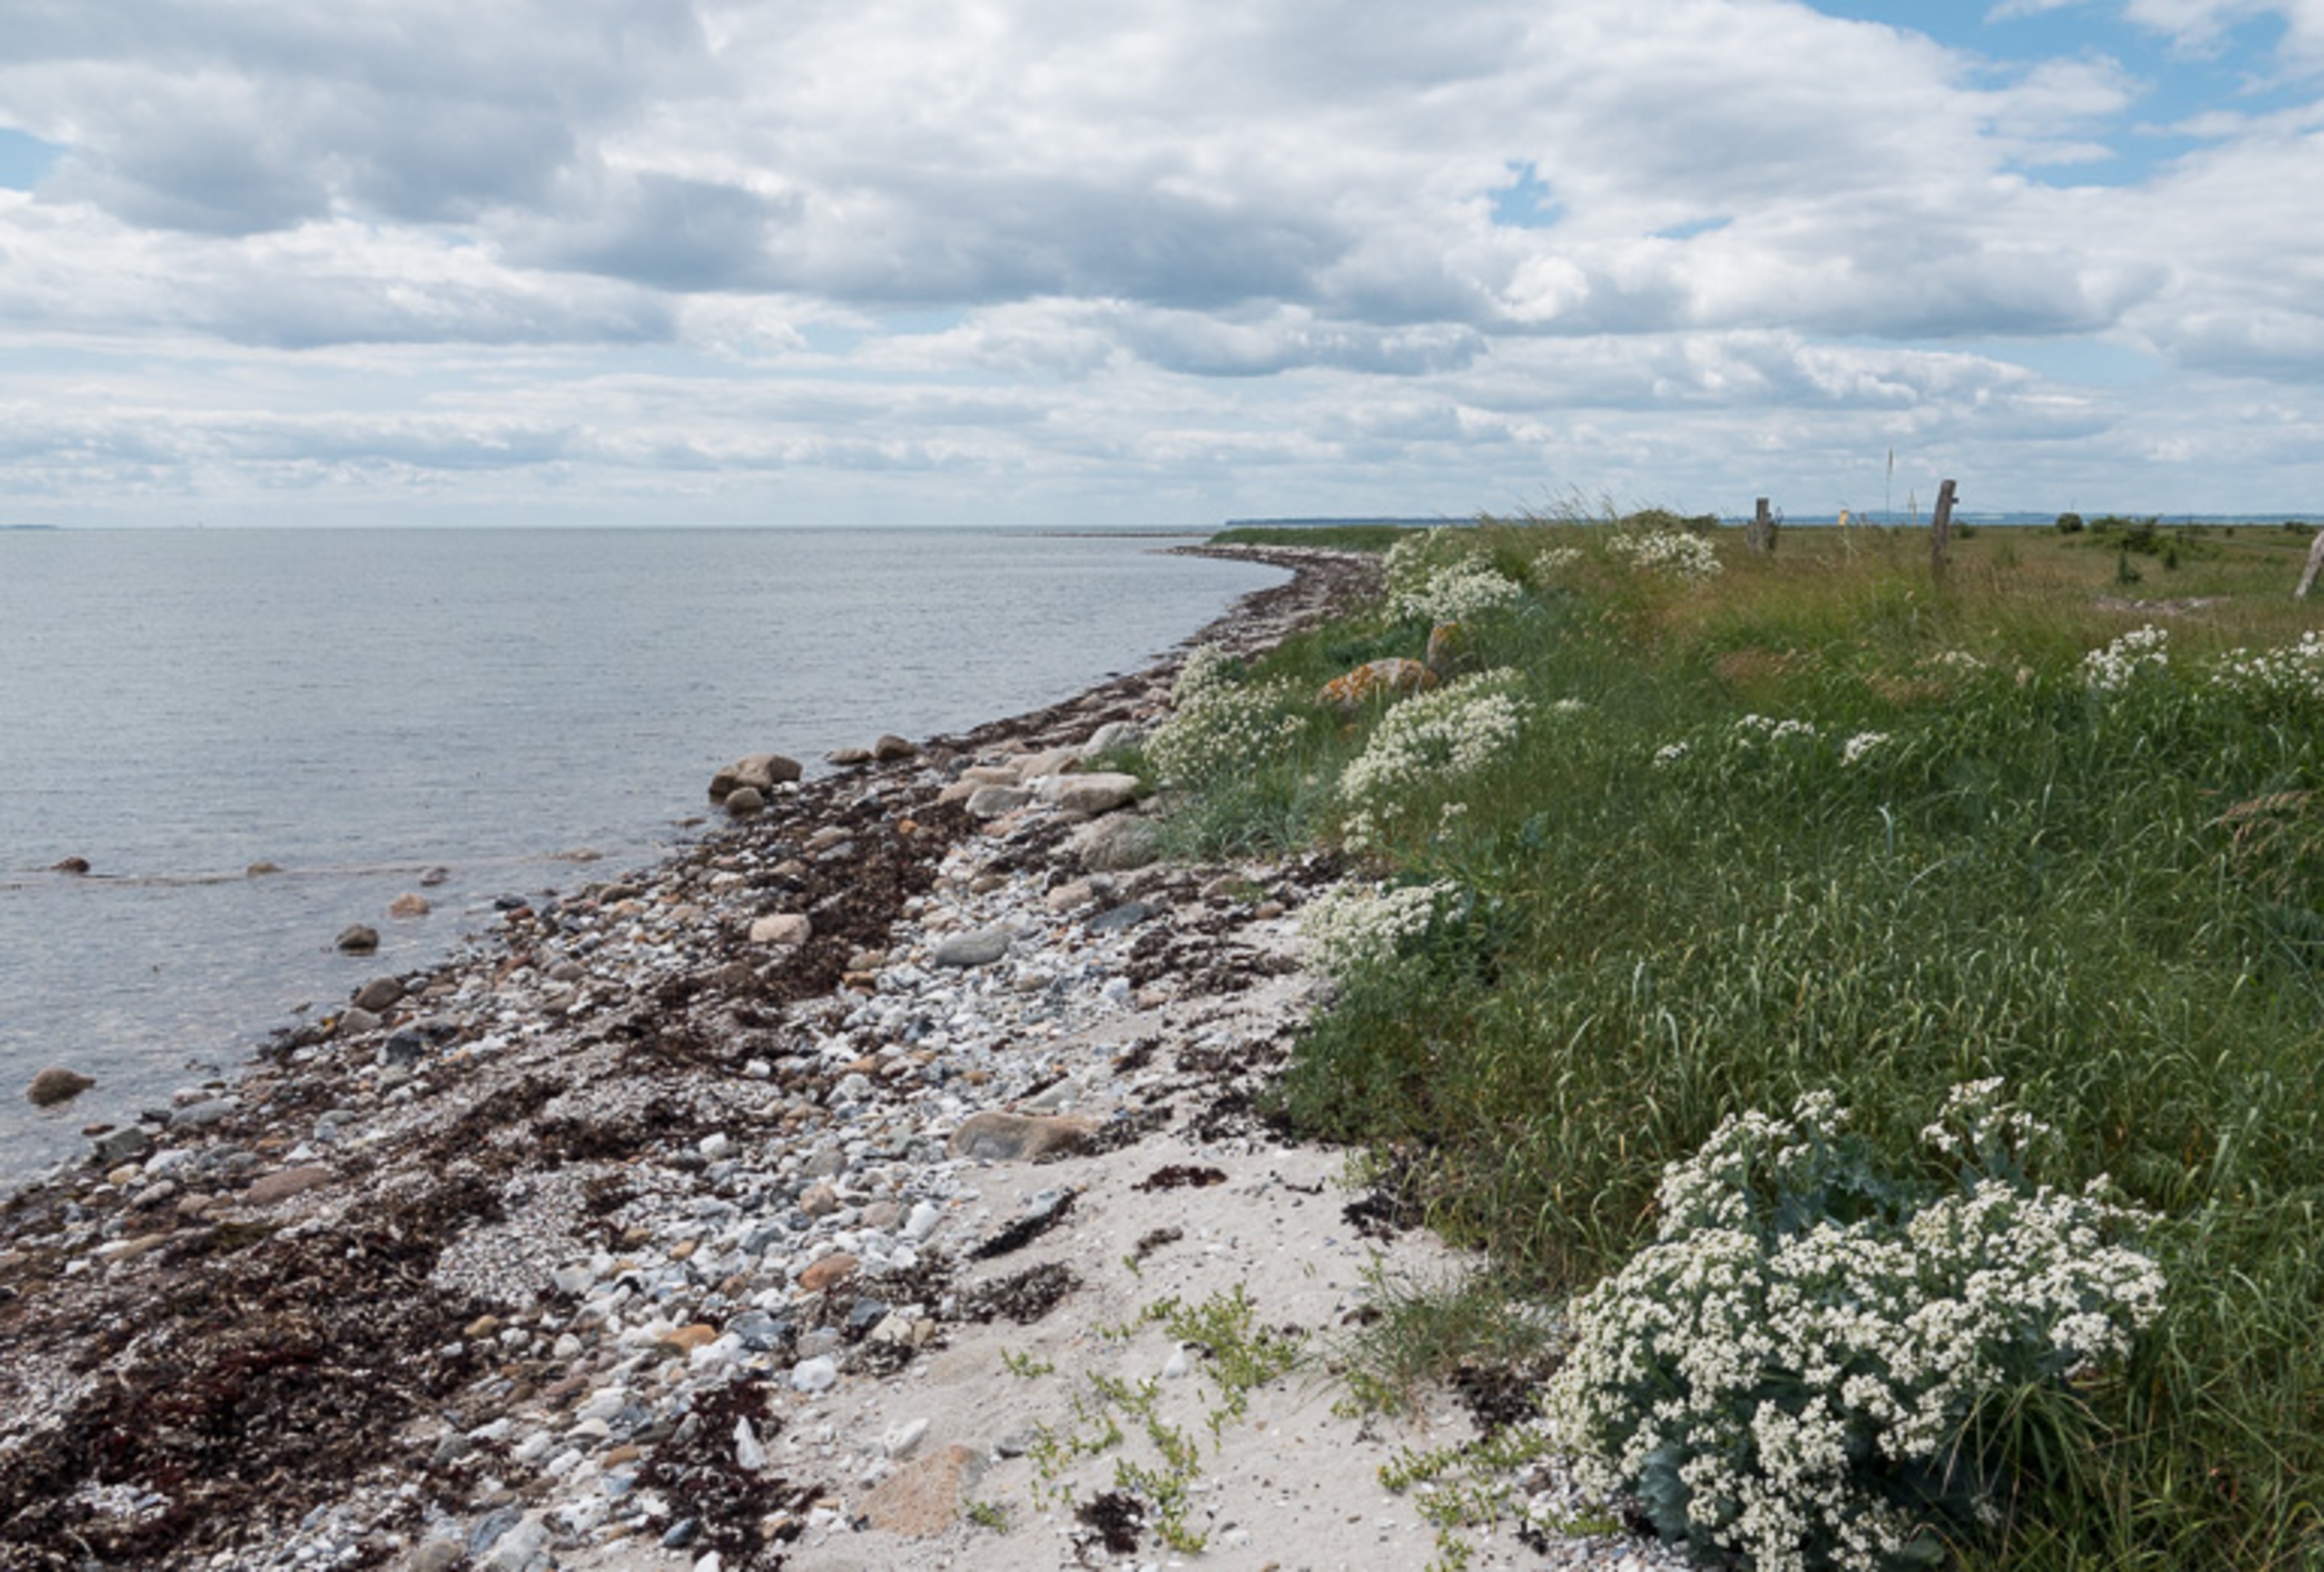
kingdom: Plantae
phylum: Tracheophyta
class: Magnoliopsida
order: Brassicales
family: Brassicaceae
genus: Crambe
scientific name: Crambe maritima
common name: Strandkål
